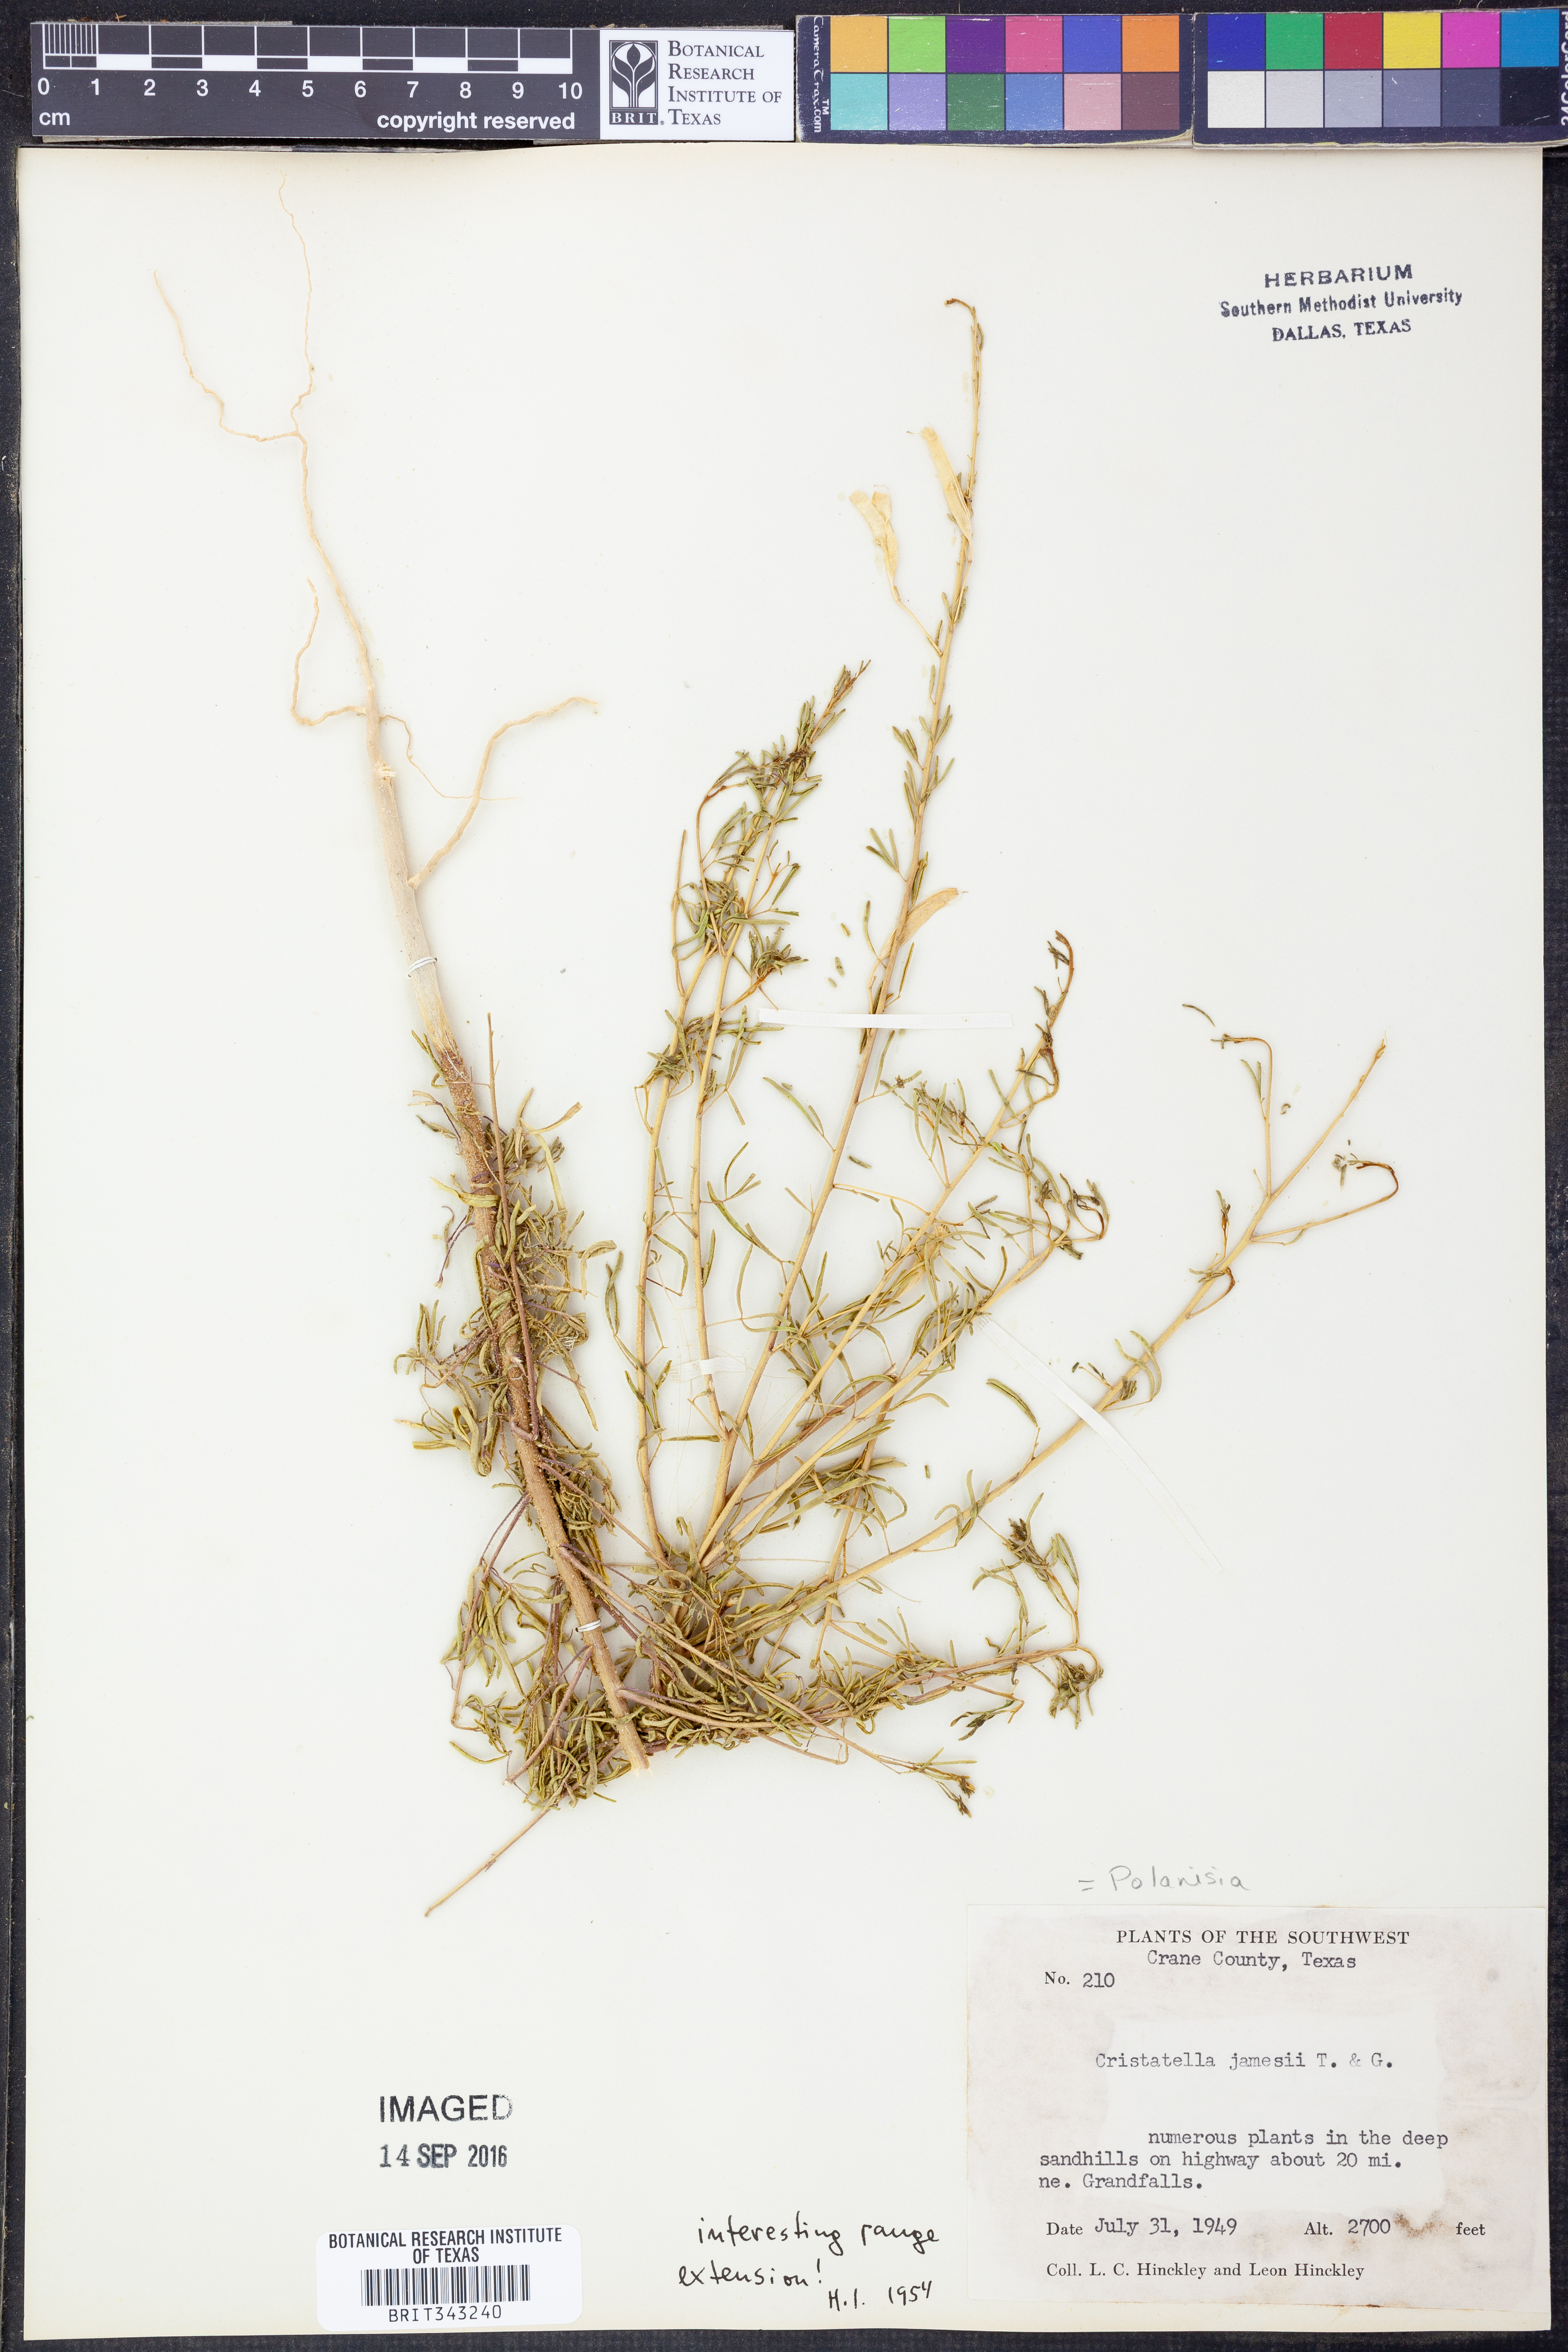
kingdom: Plantae
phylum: Tracheophyta
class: Magnoliopsida
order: Brassicales
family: Cleomaceae
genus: Polanisia
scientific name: Polanisia jamesii
